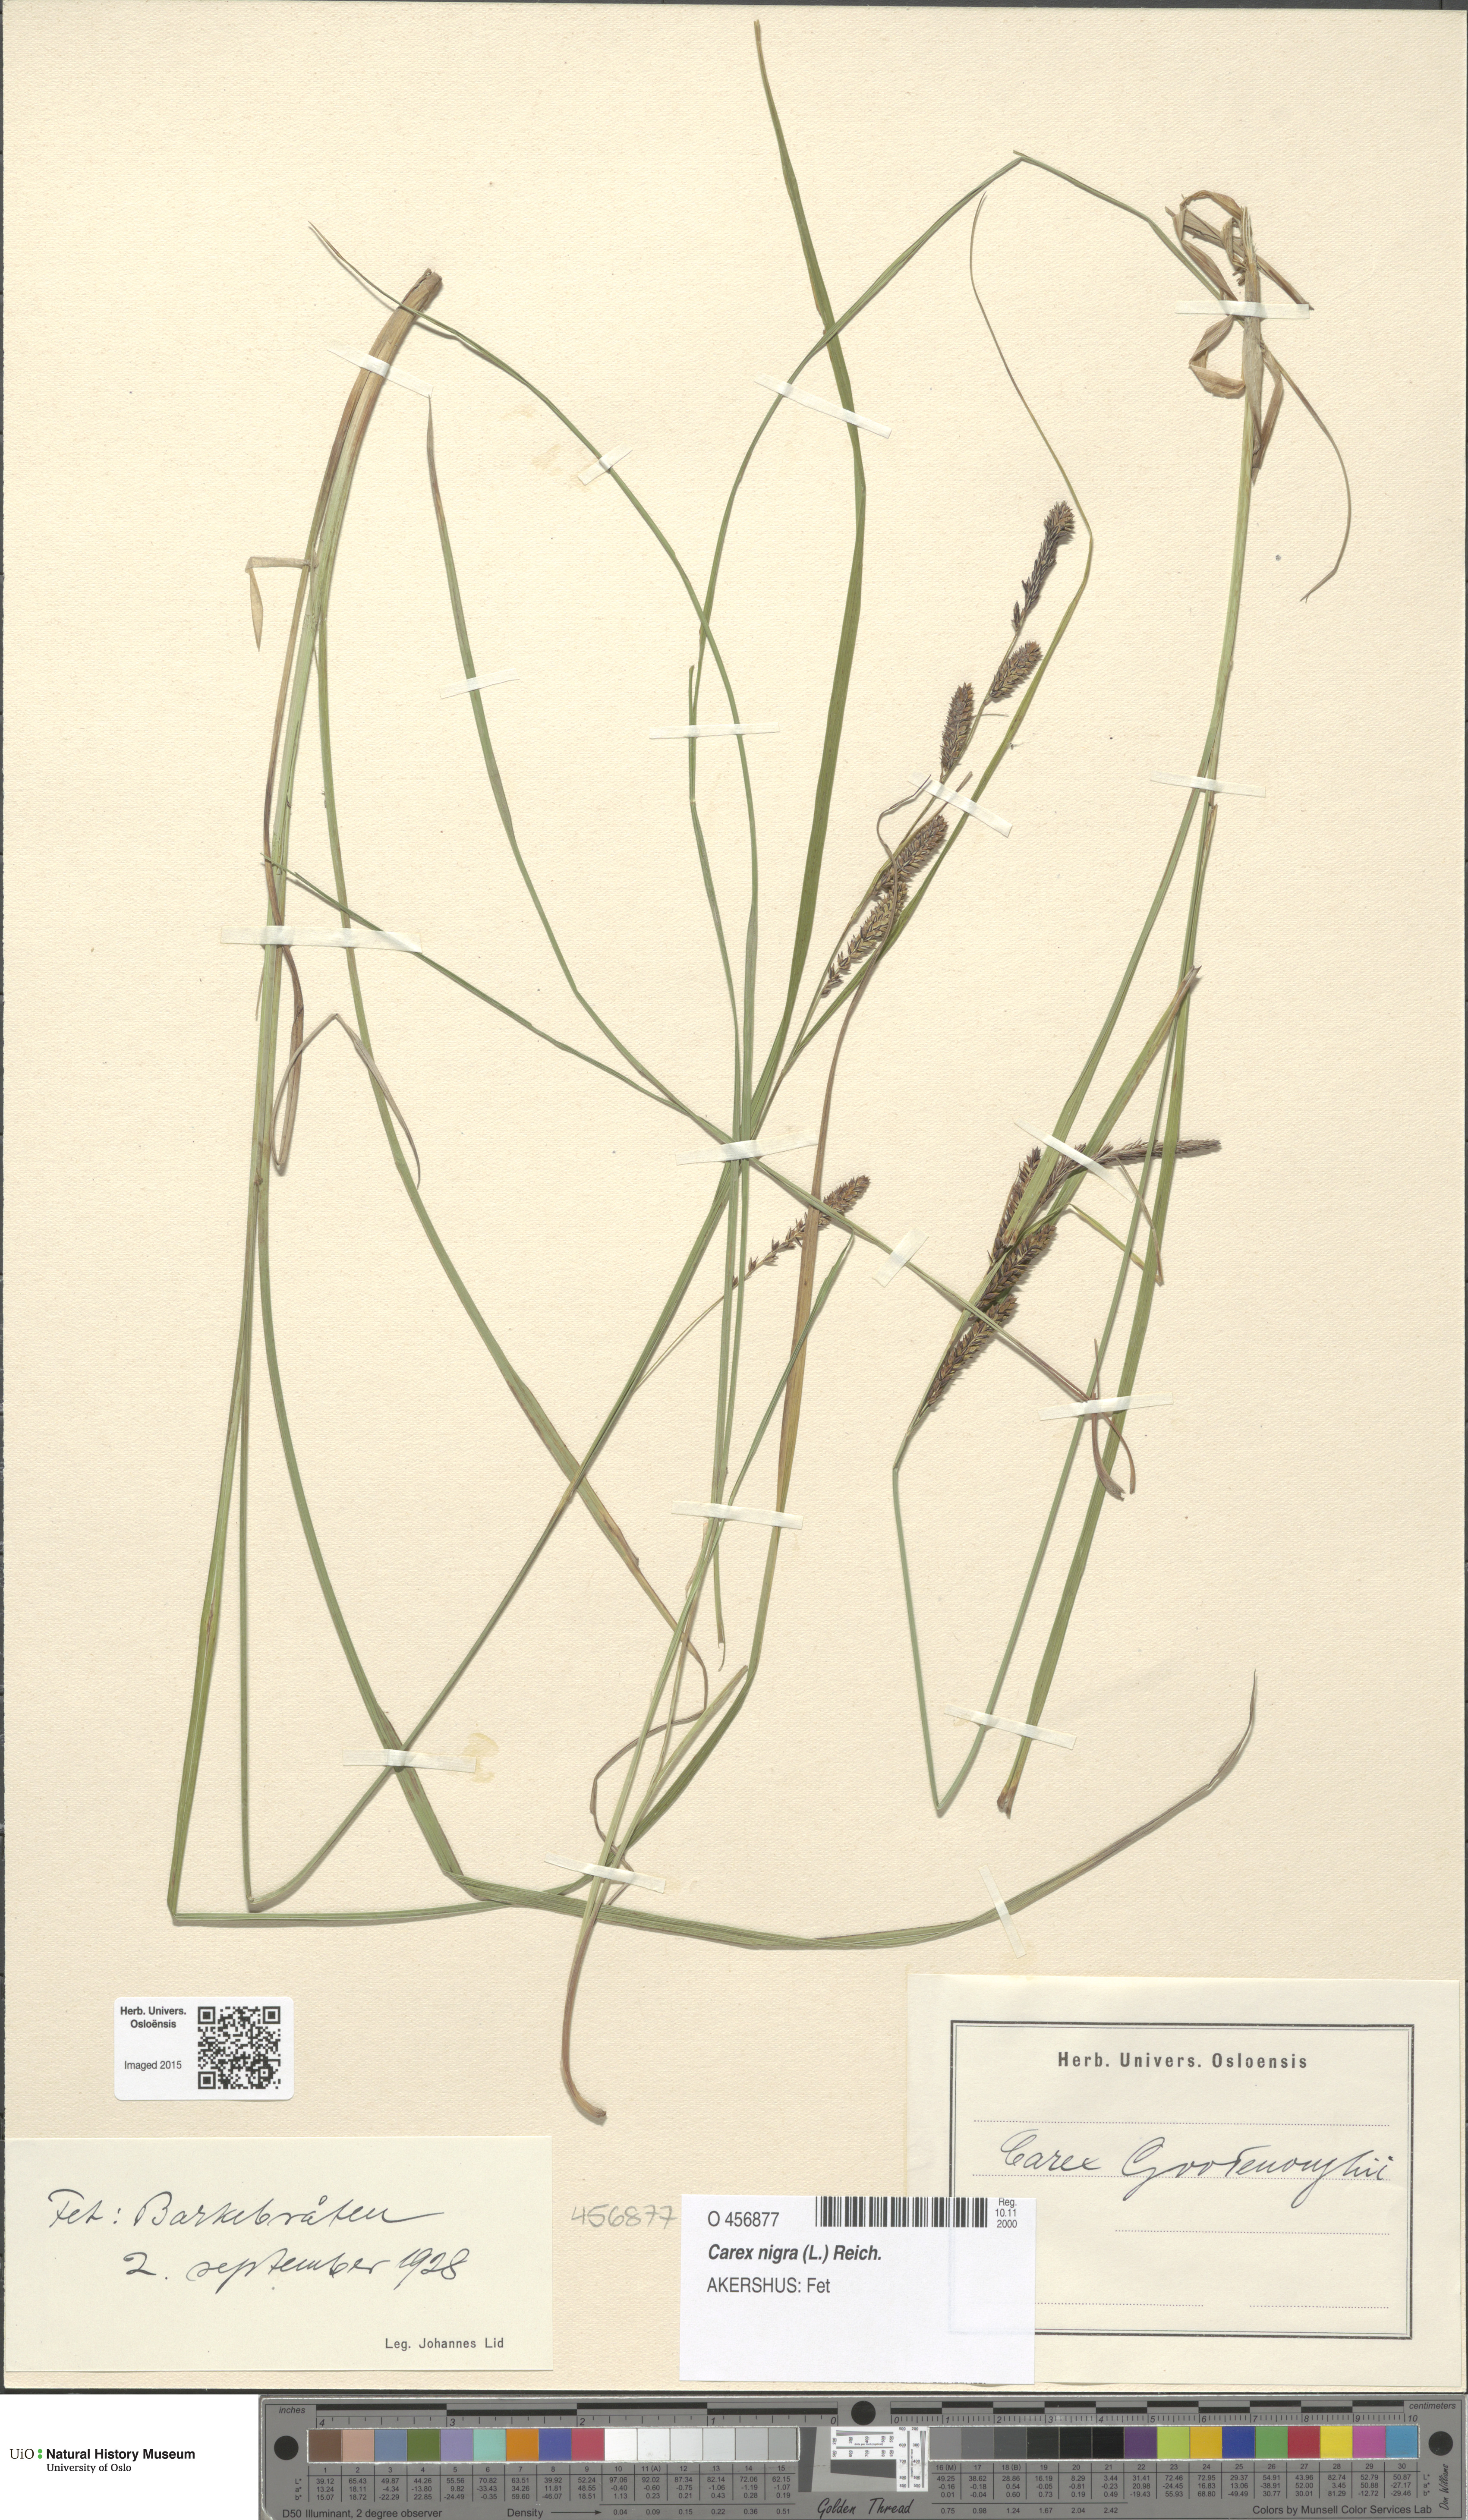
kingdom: Plantae
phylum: Tracheophyta
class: Liliopsida
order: Poales
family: Cyperaceae
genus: Carex
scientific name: Carex nigra
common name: Common sedge
